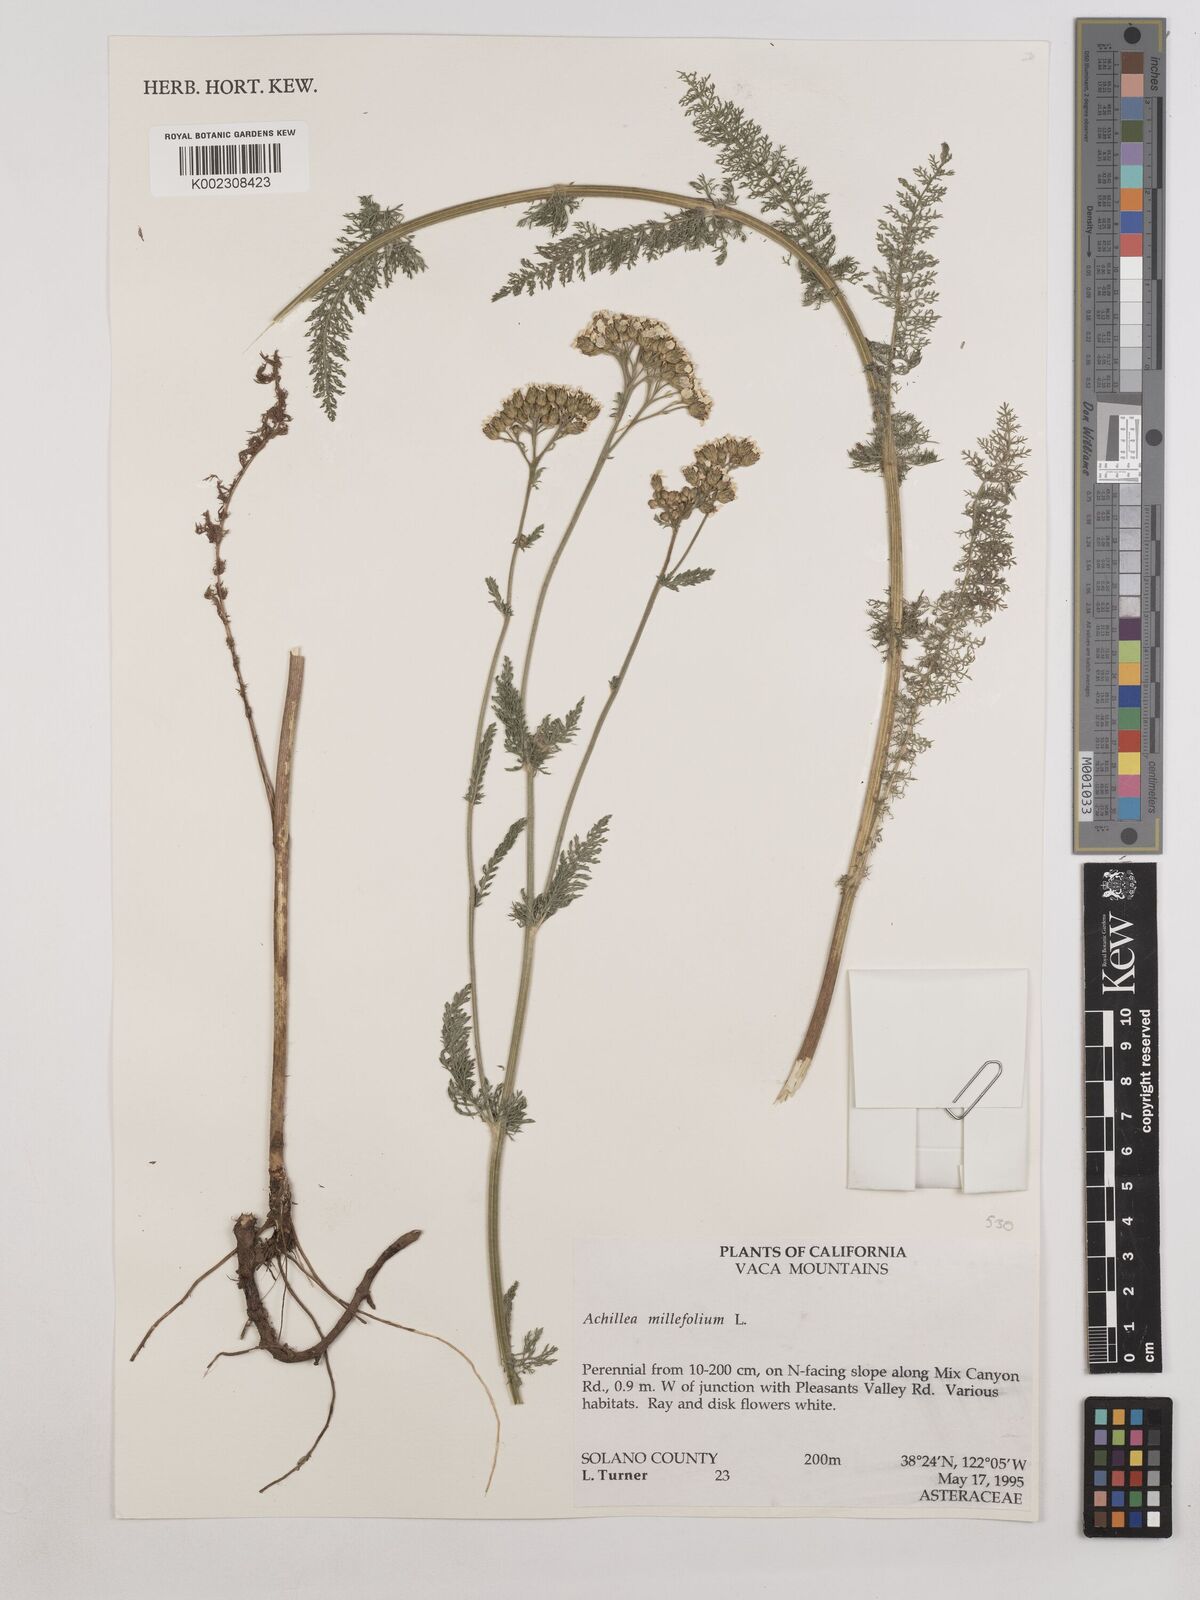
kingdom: Plantae
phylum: Tracheophyta
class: Magnoliopsida
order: Asterales
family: Asteraceae
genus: Achillea
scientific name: Achillea millefolium
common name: Yarrow
